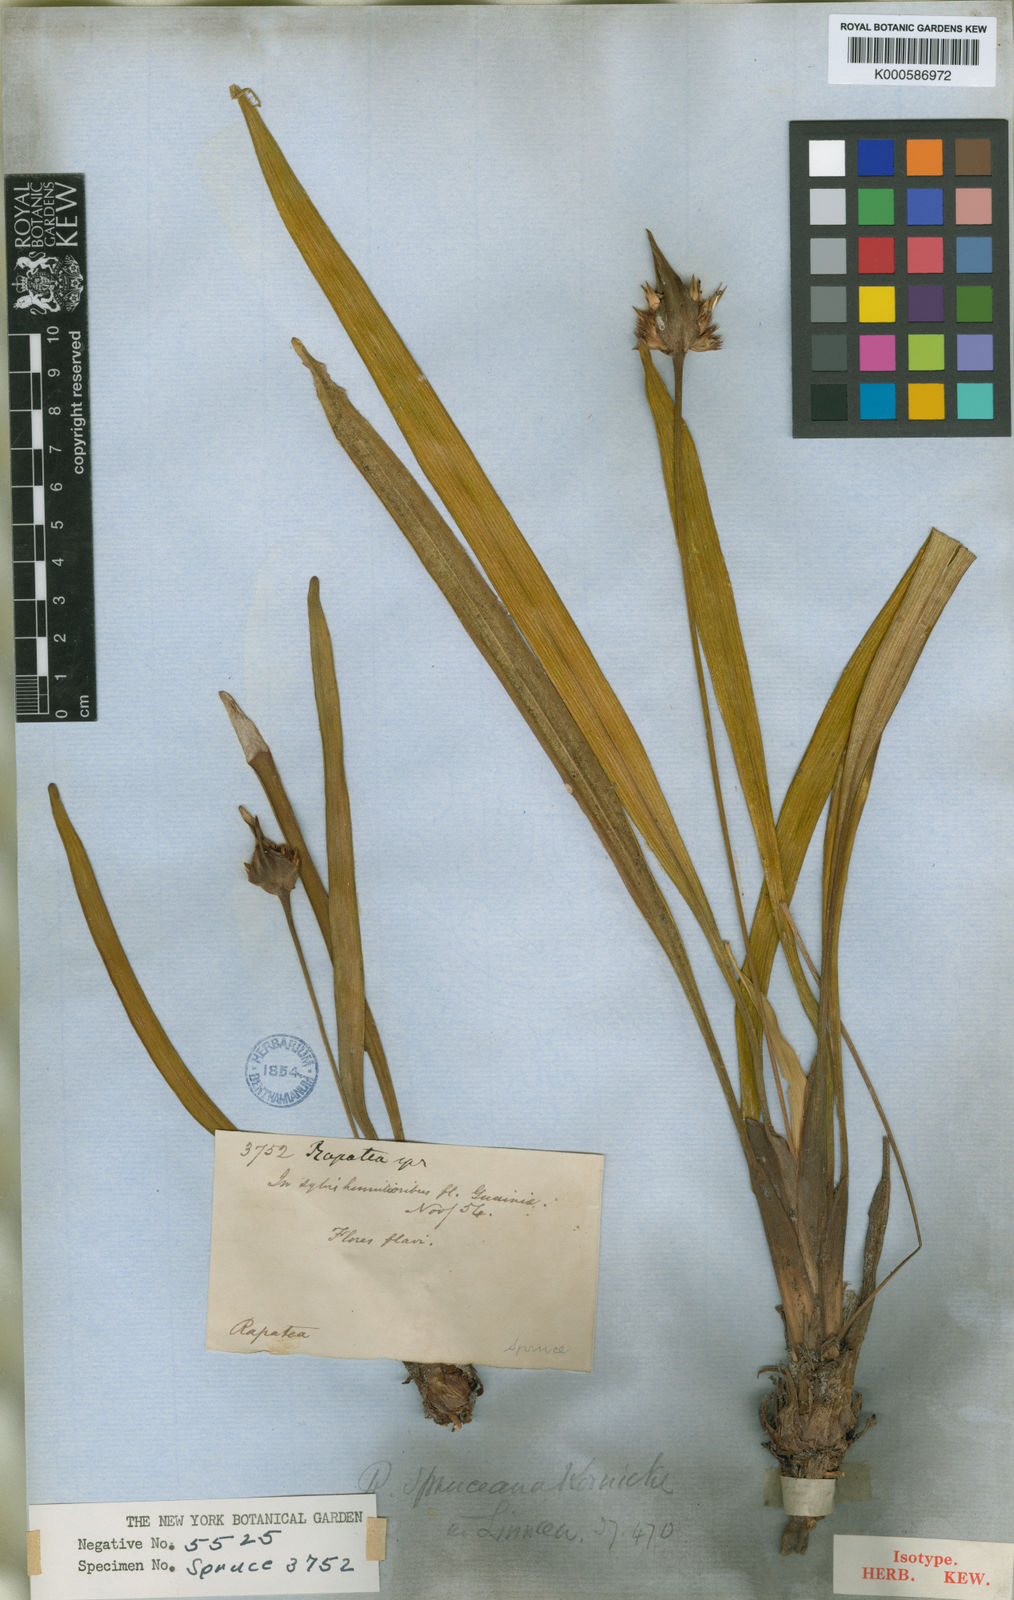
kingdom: Plantae
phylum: Tracheophyta
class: Liliopsida
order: Poales
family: Rapateaceae
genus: Rapatea
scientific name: Rapatea
